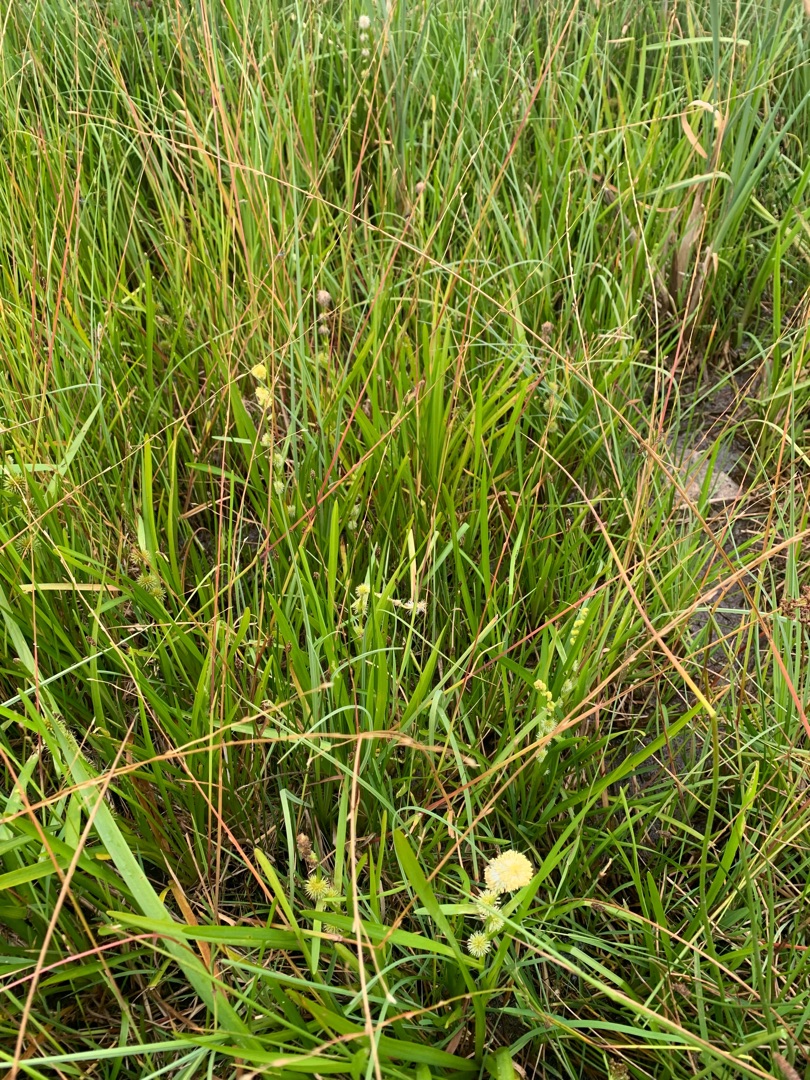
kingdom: Plantae
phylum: Tracheophyta
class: Liliopsida
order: Poales
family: Typhaceae
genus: Sparganium
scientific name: Sparganium emersum
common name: Enkelt pindsvineknop
